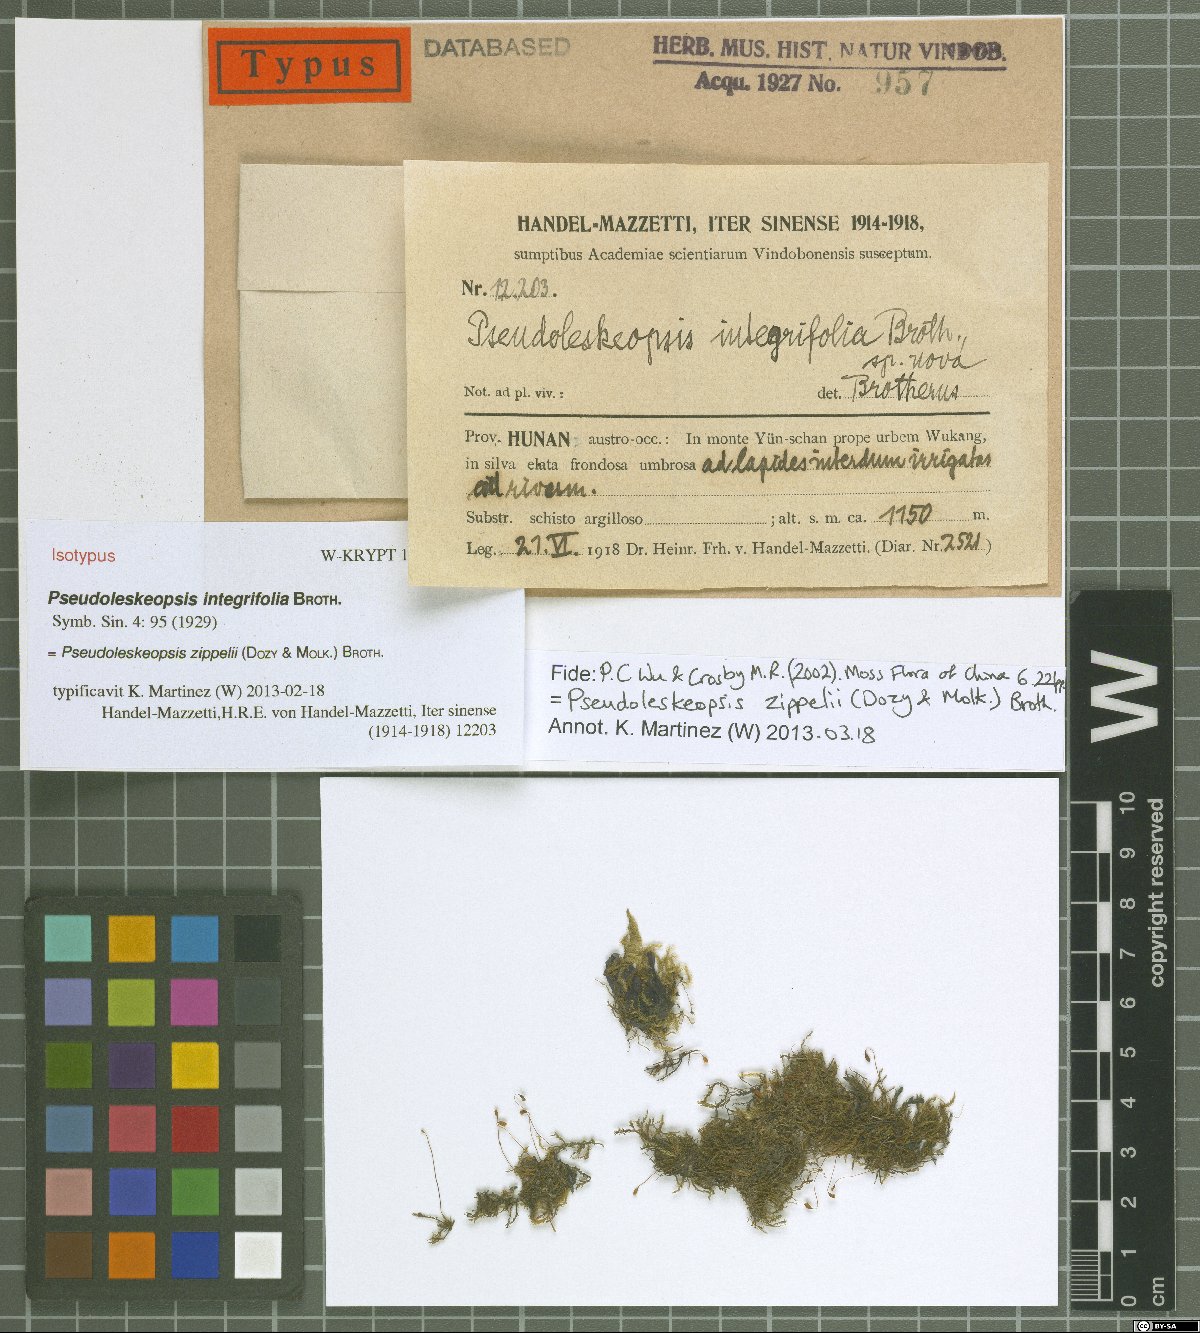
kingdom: Plantae
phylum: Bryophyta
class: Bryopsida
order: Hypnales
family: Leskeaceae
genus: Pseudoleskeopsis
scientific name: Pseudoleskeopsis zippelii
